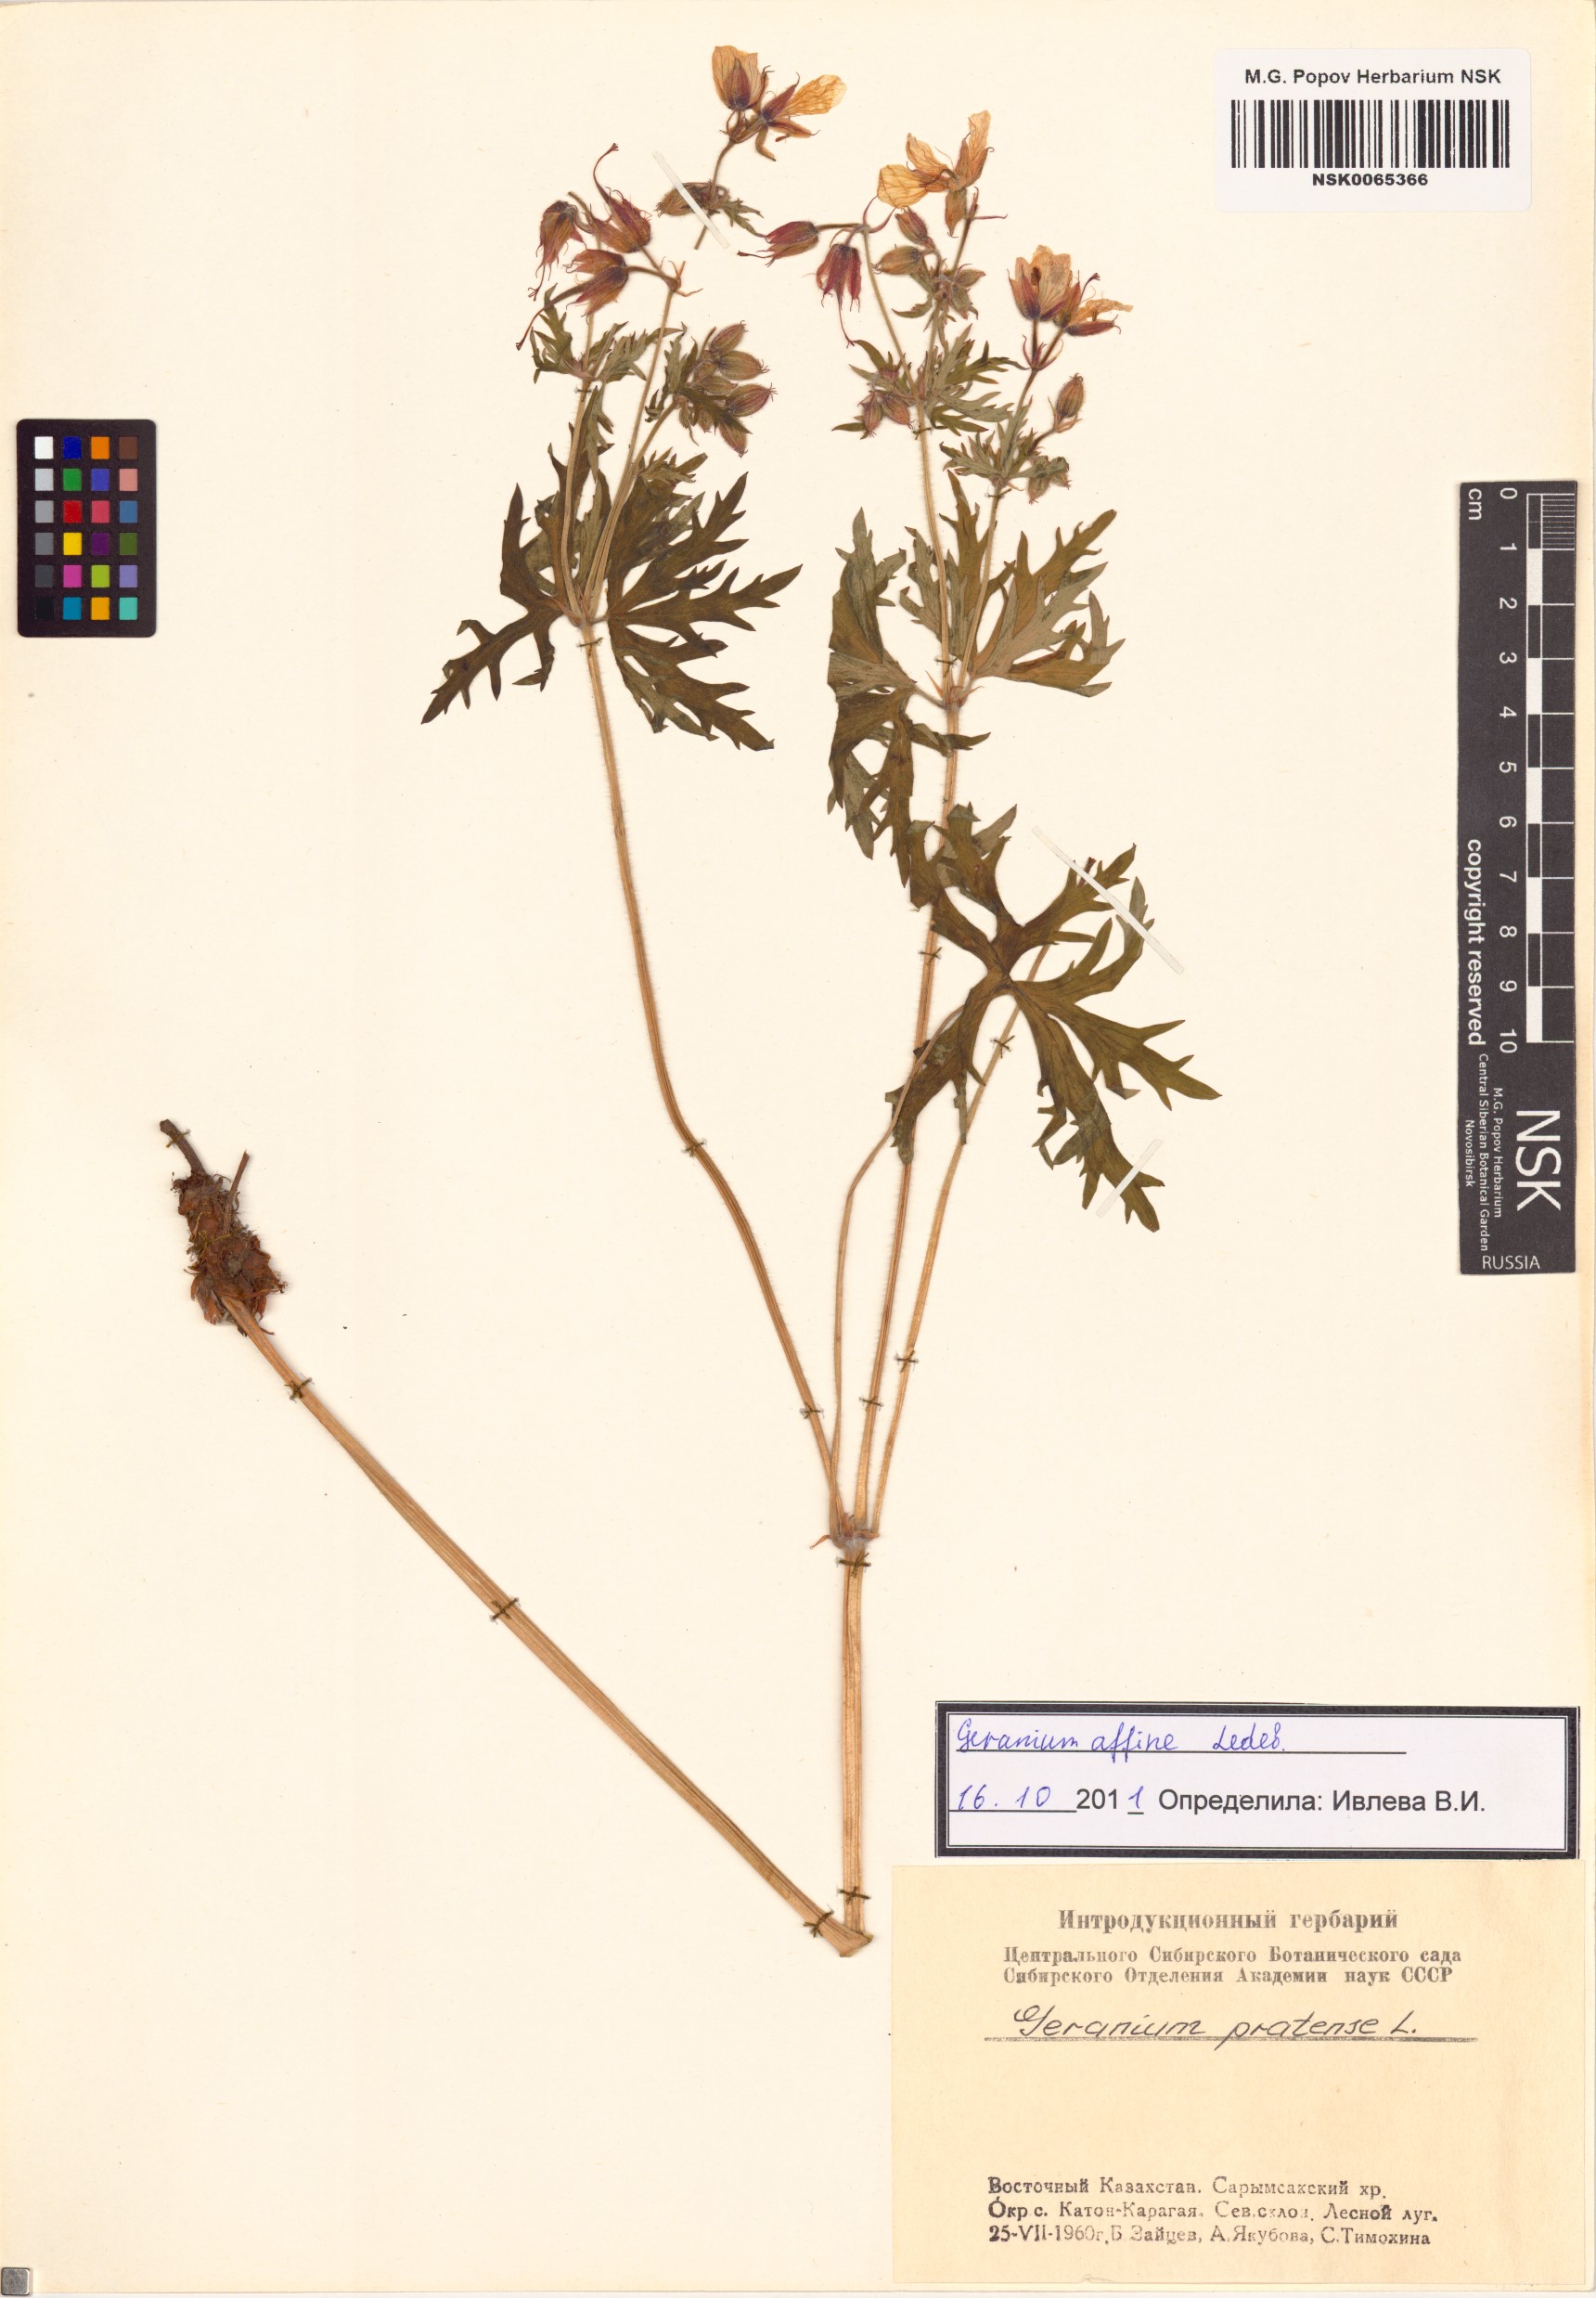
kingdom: Plantae
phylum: Tracheophyta
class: Magnoliopsida
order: Geraniales
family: Geraniaceae
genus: Geranium
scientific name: Geranium pratense
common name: Meadow crane's-bill
